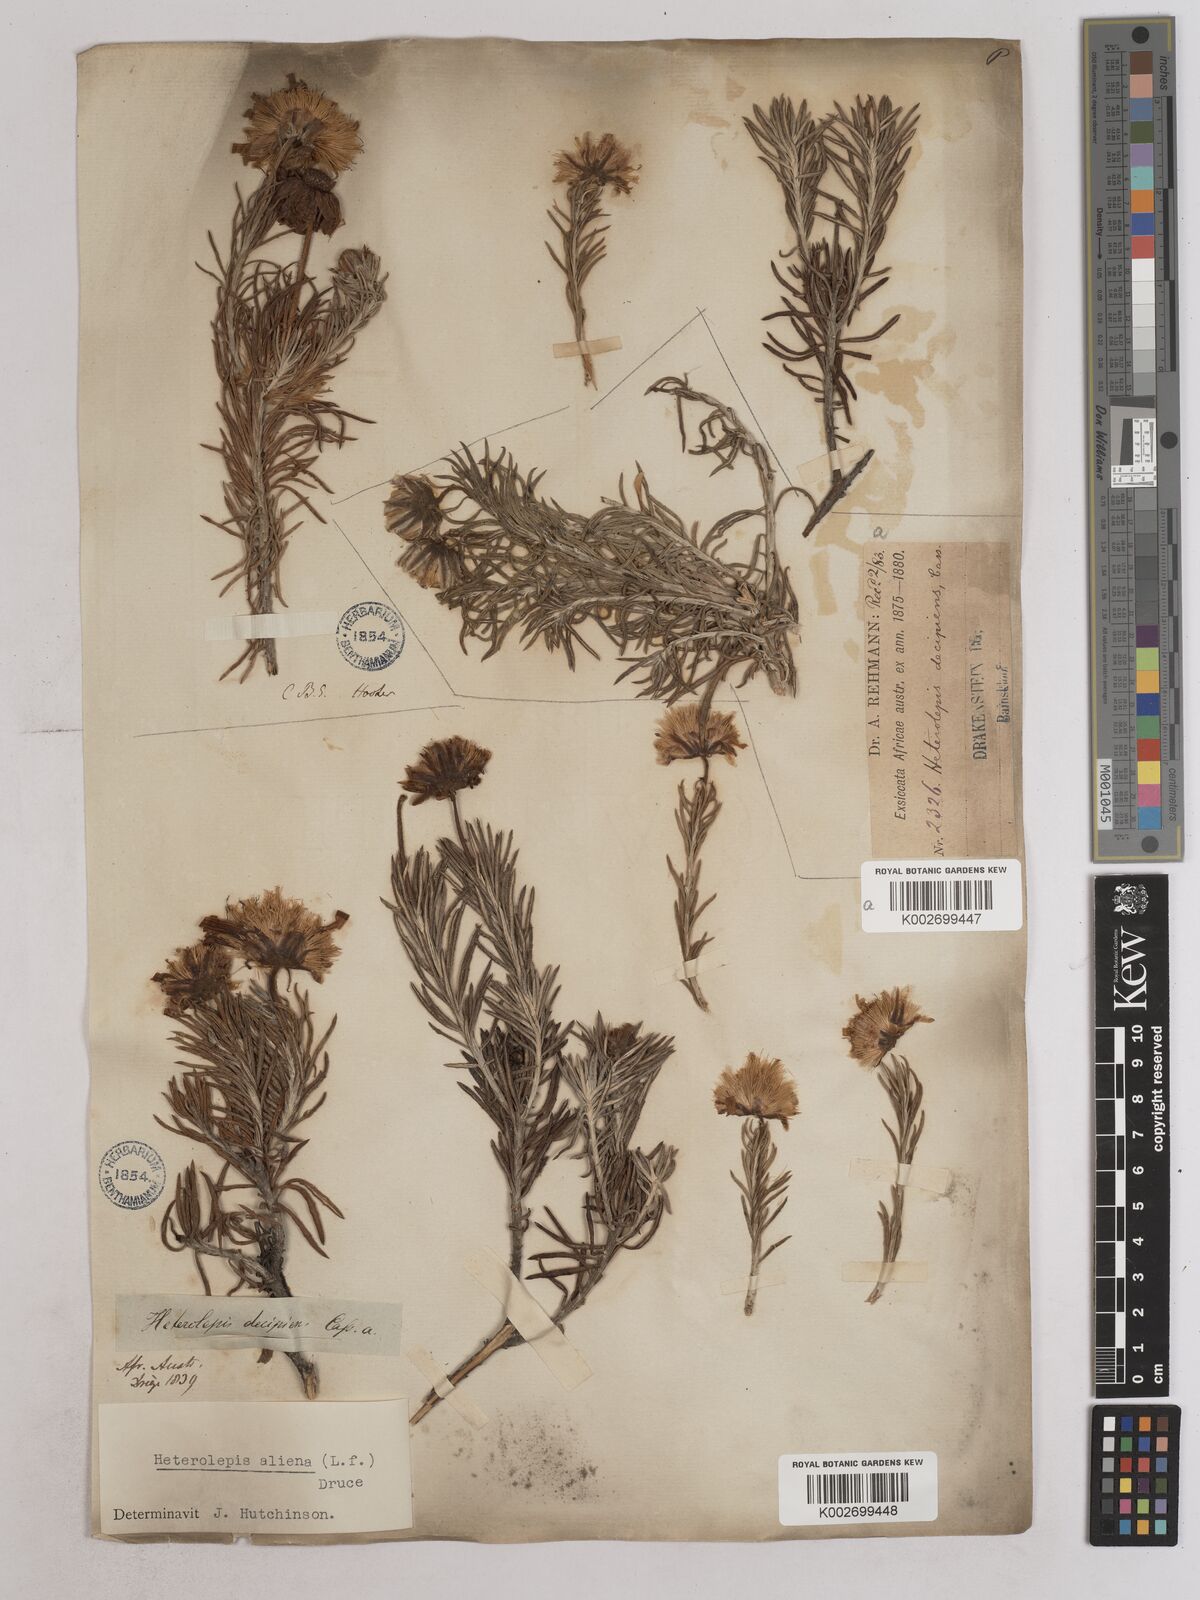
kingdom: Plantae
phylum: Tracheophyta
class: Magnoliopsida
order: Asterales
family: Asteraceae
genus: Heterolepis
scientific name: Heterolepis aliena
